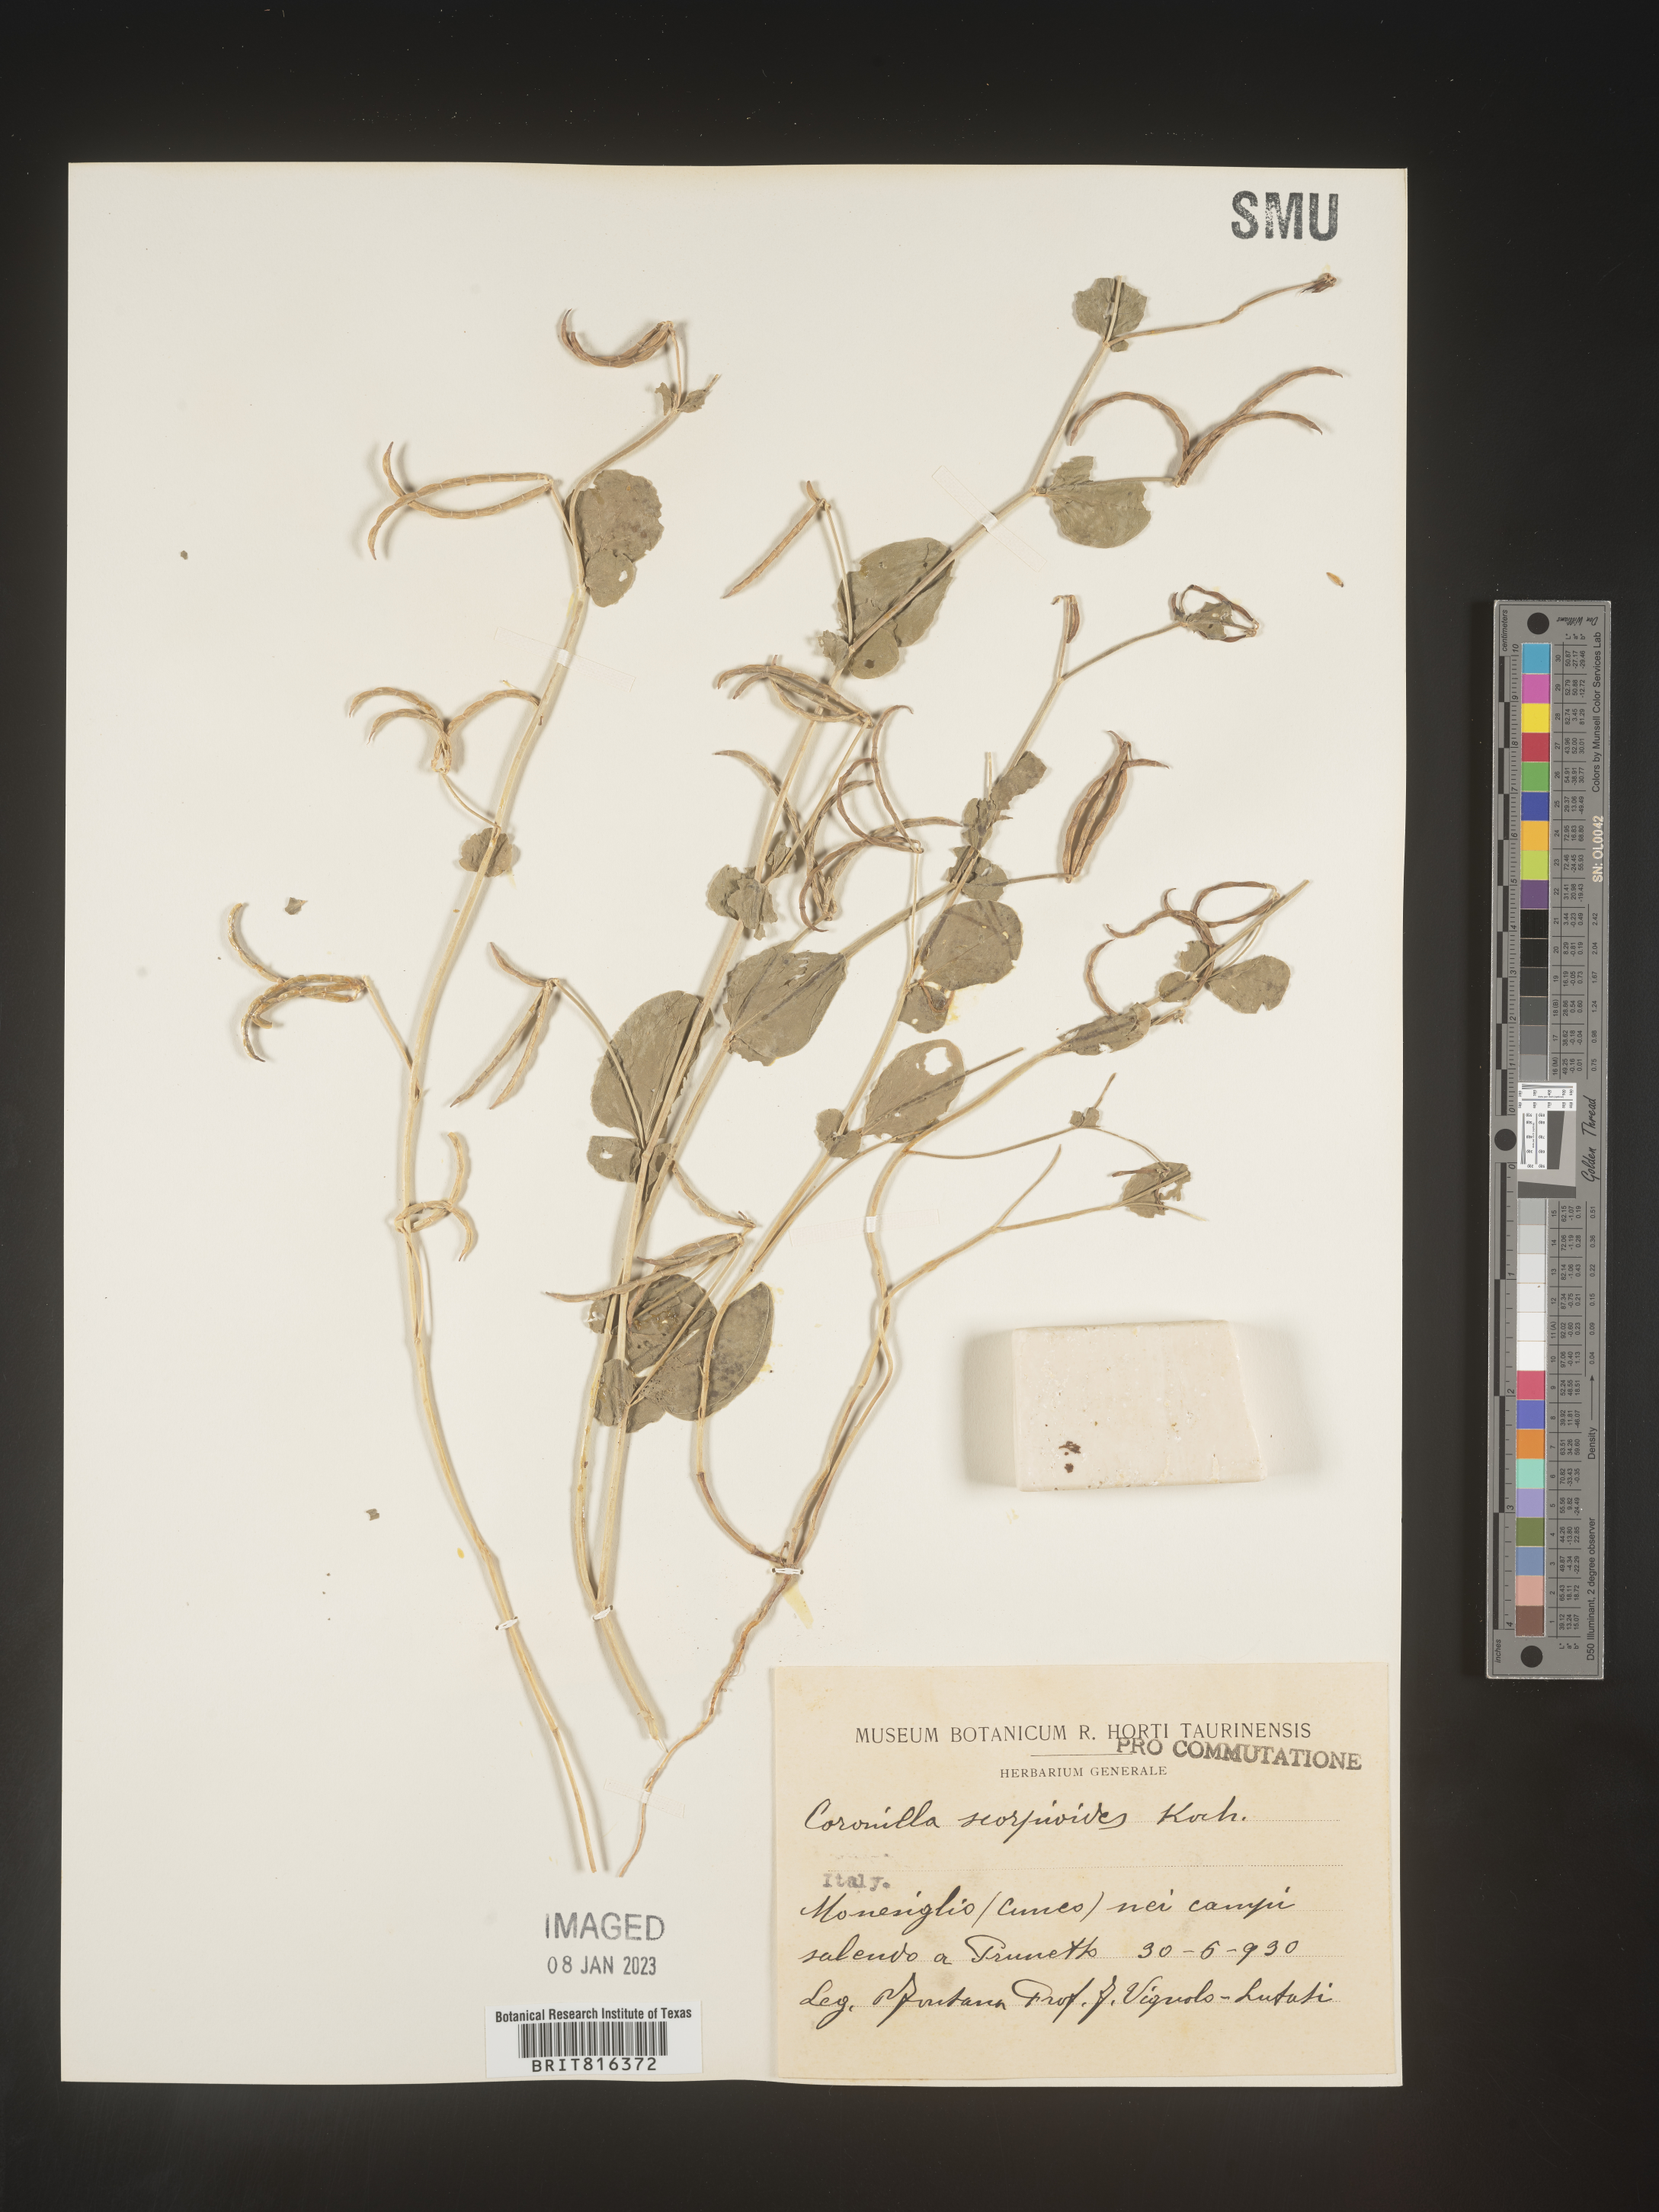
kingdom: Plantae
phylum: Tracheophyta
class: Magnoliopsida
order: Fabales
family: Fabaceae
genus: Coronilla
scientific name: Coronilla
